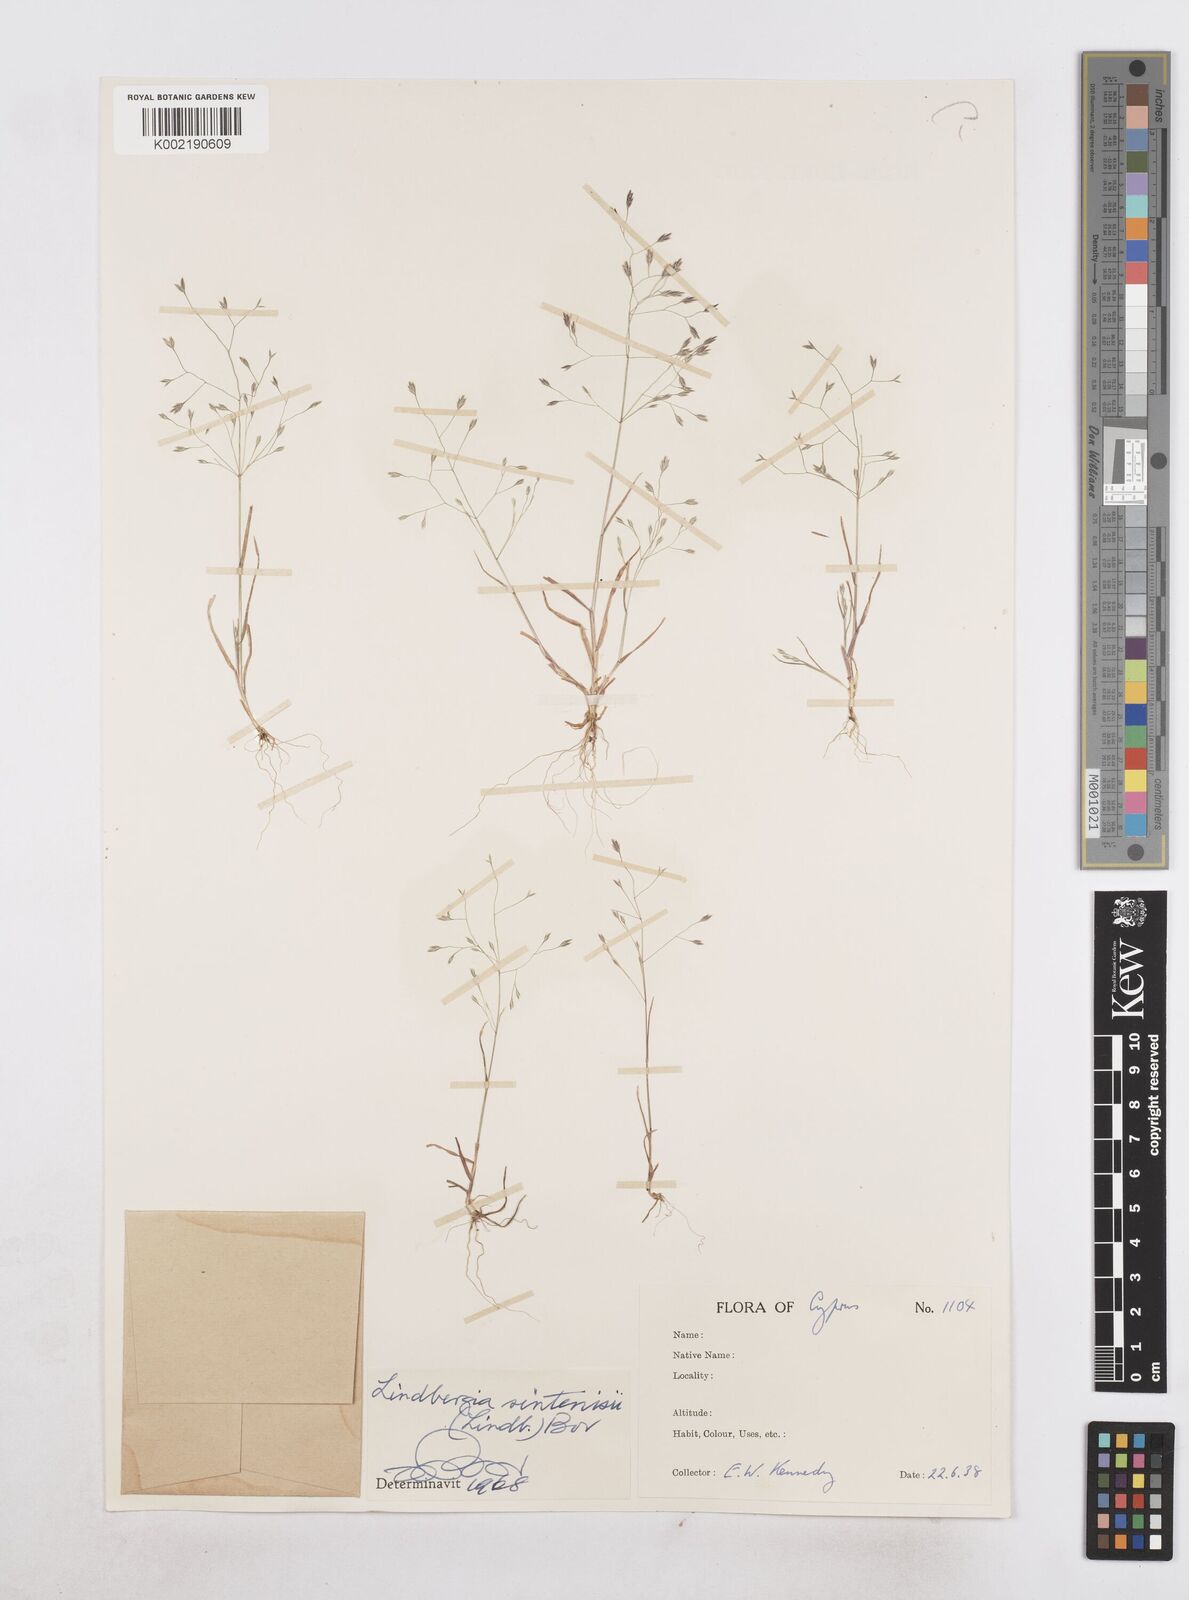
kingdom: Plantae
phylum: Tracheophyta
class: Liliopsida
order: Poales
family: Poaceae
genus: Poa
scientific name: Poa sintenisii
